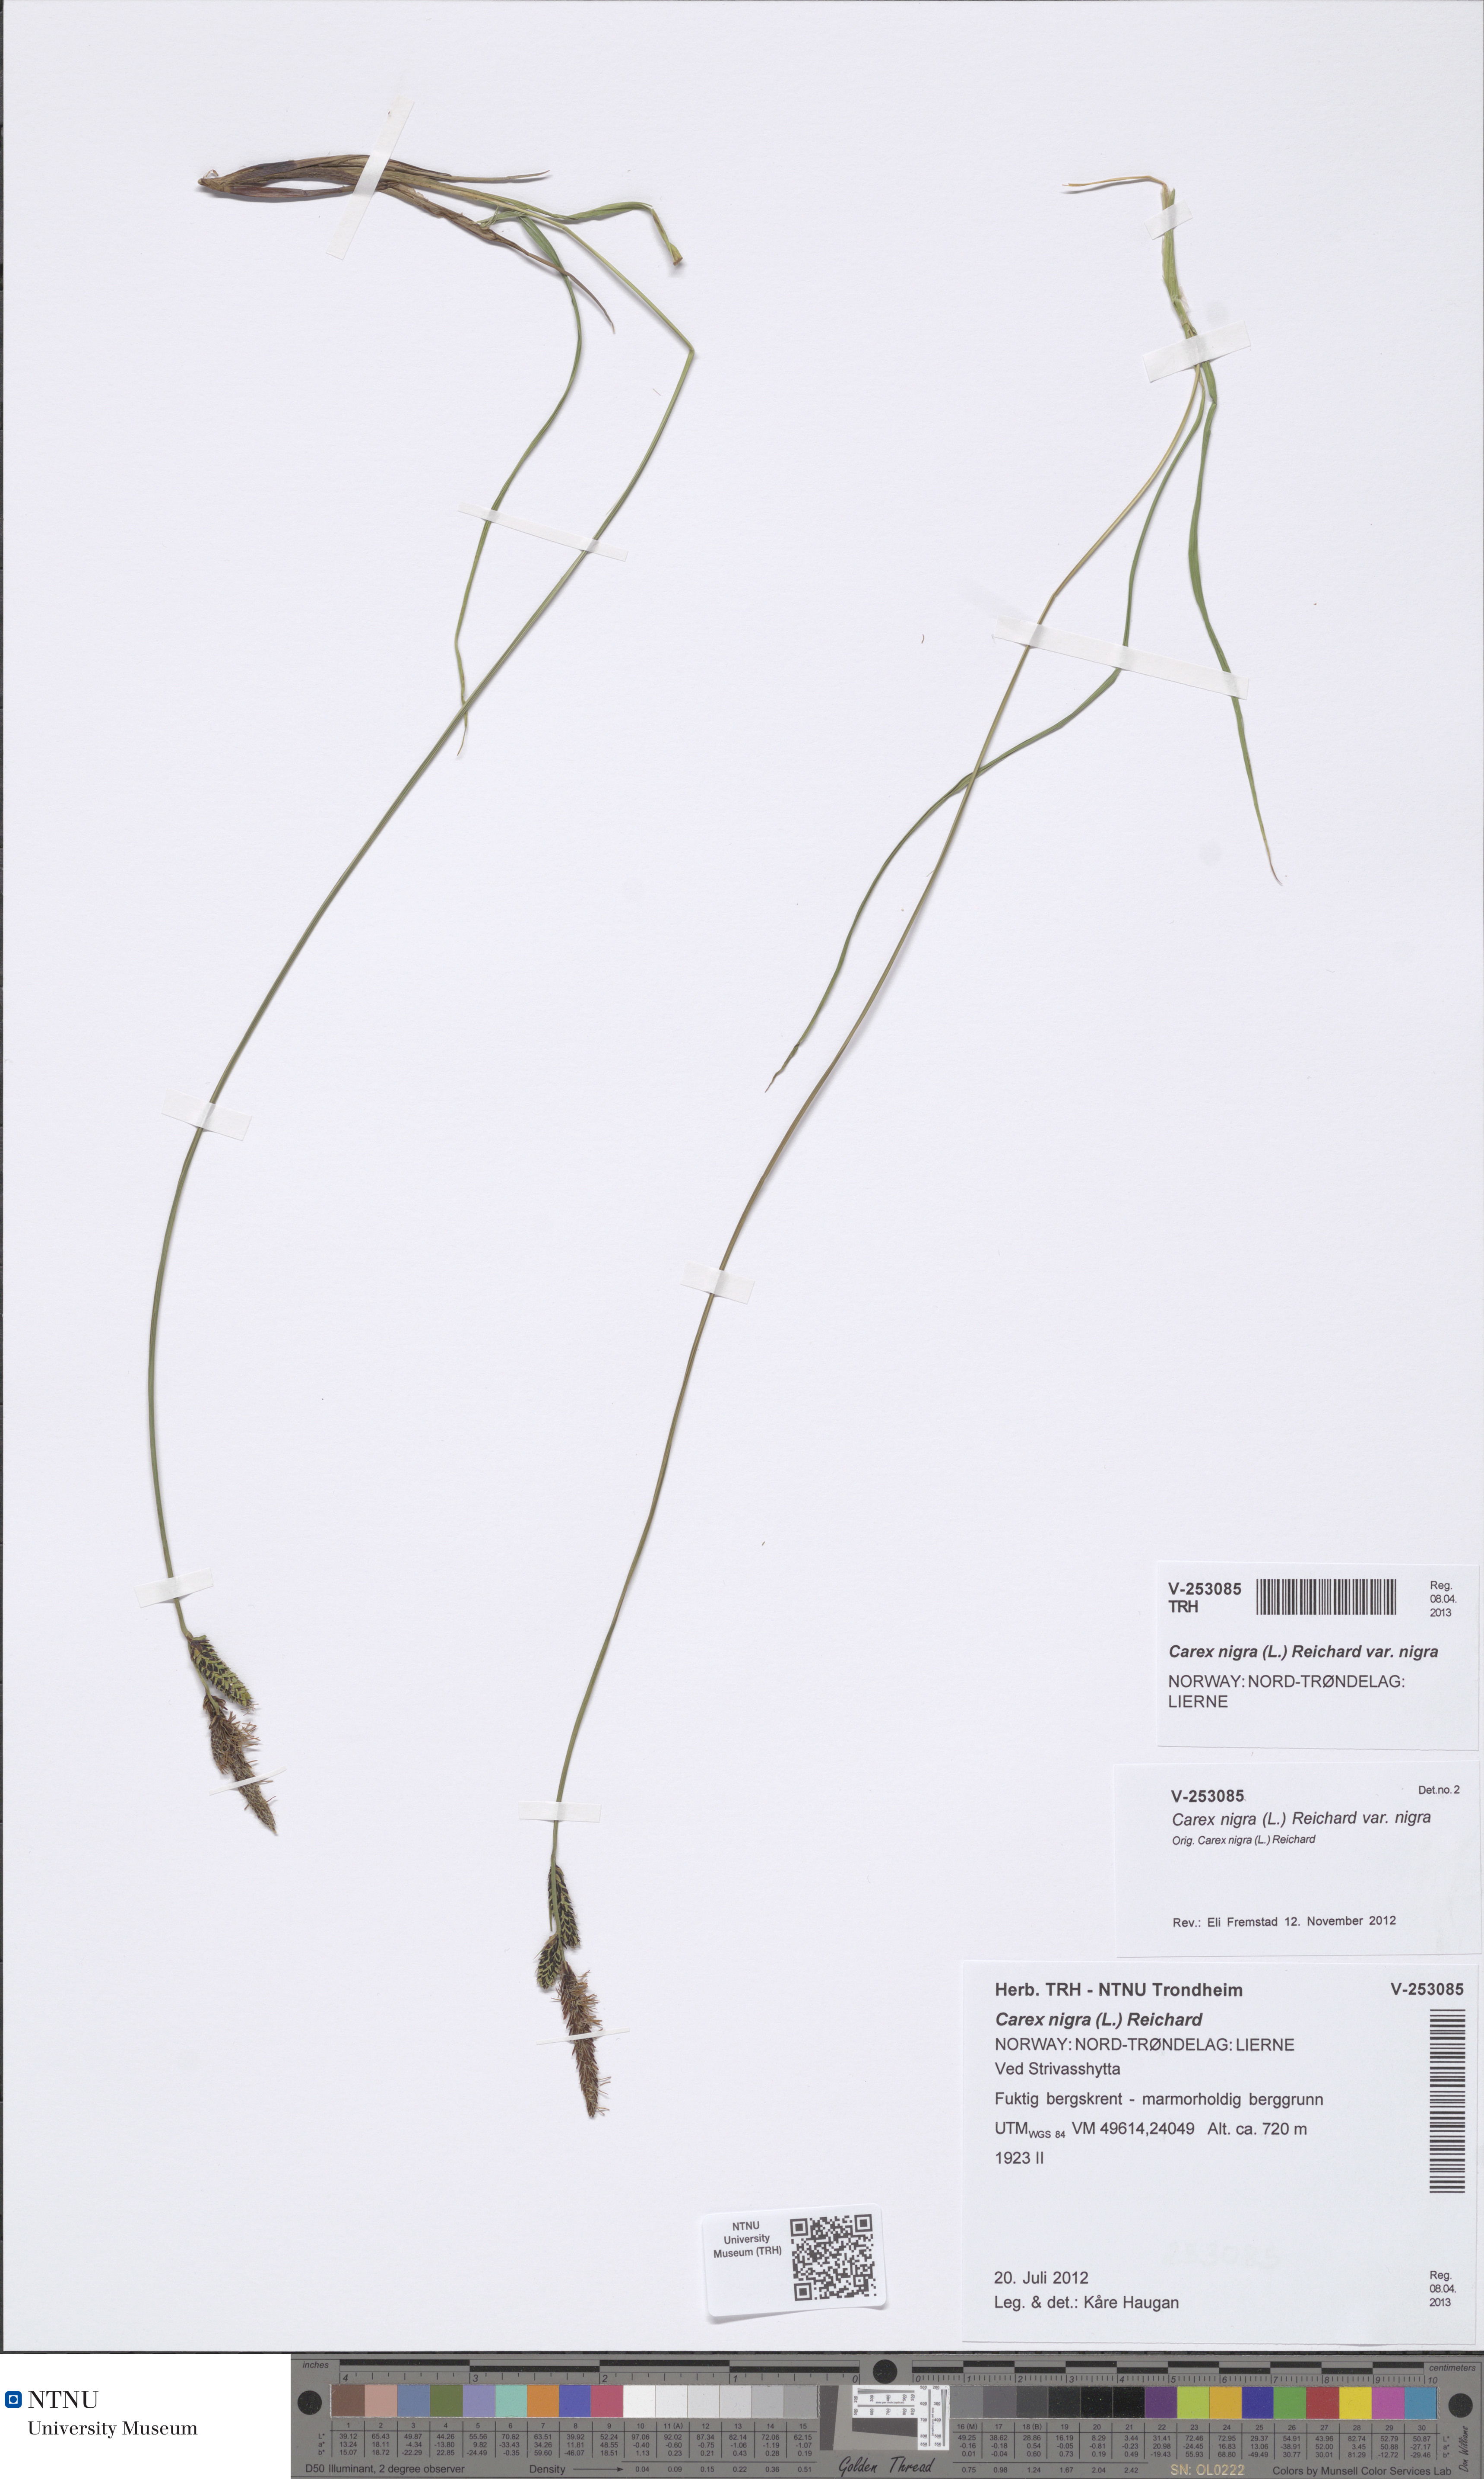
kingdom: Plantae
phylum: Tracheophyta
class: Liliopsida
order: Poales
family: Cyperaceae
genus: Carex
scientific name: Carex nigra
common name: Common sedge
